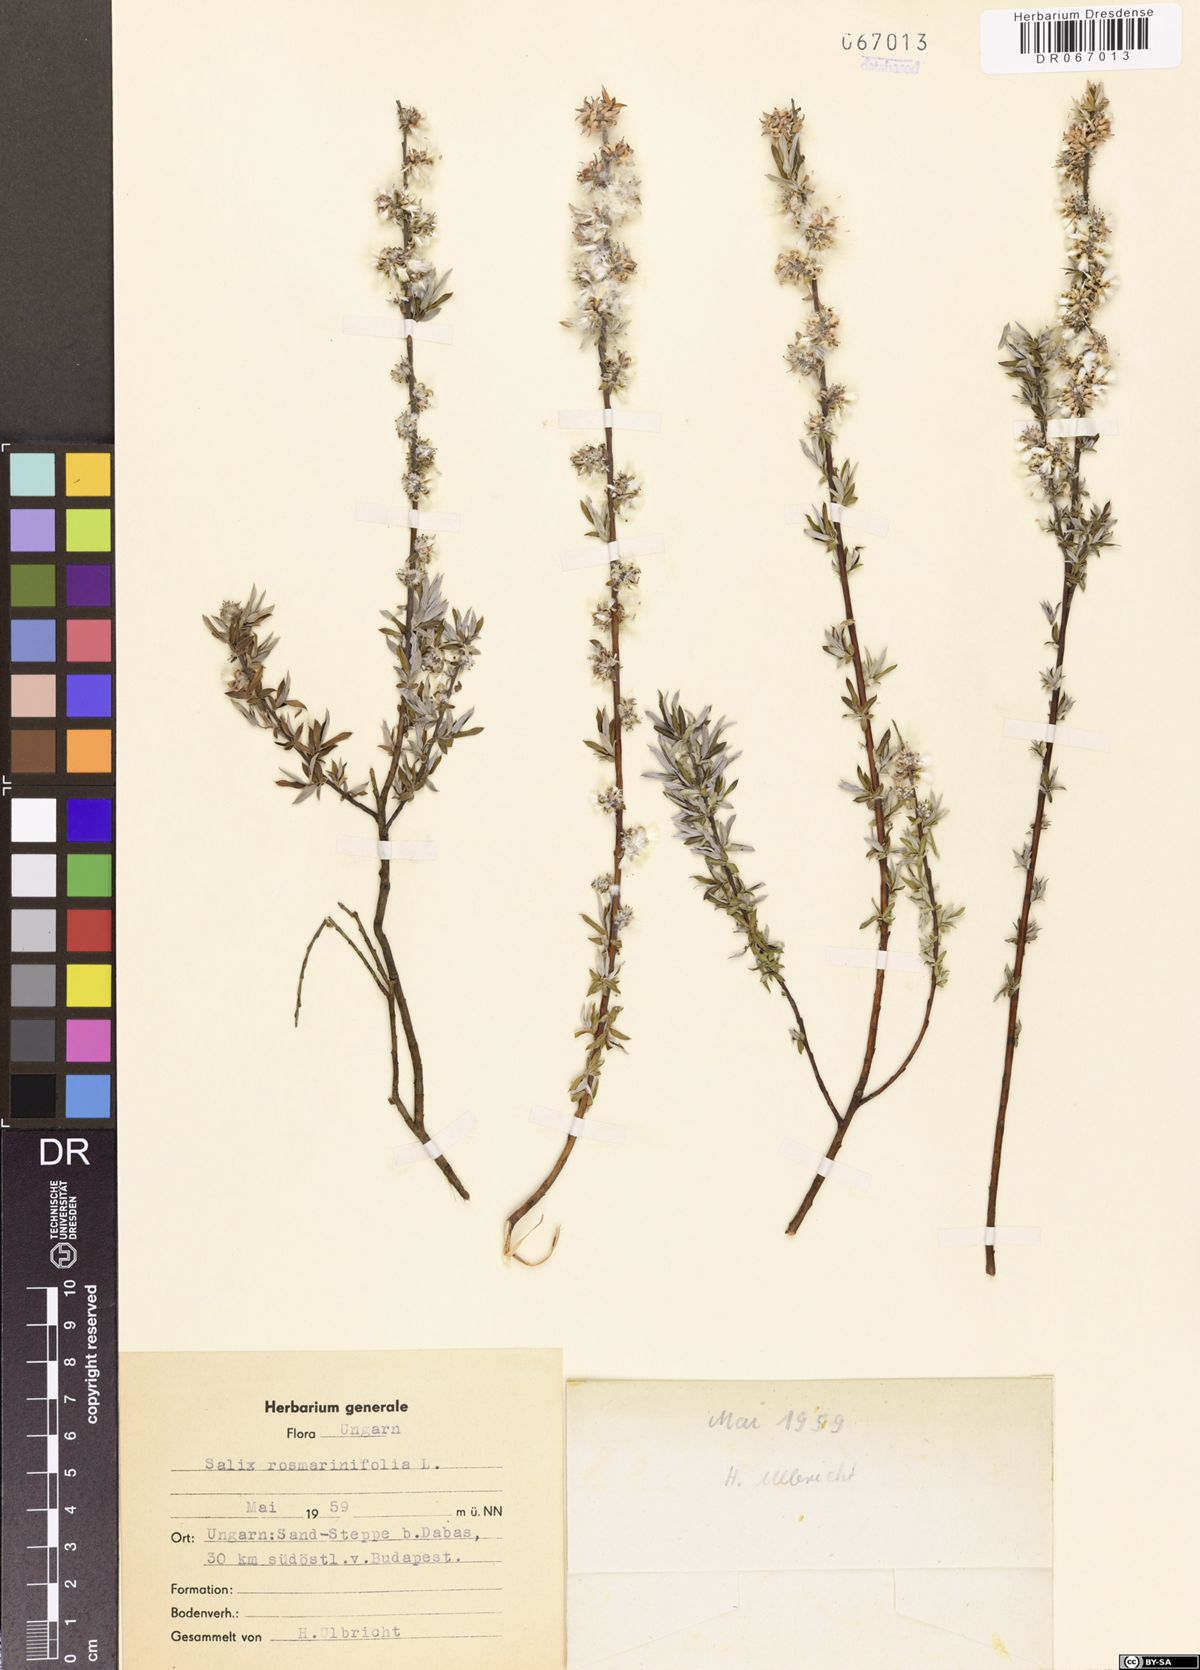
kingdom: Plantae
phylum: Tracheophyta
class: Magnoliopsida
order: Malpighiales
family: Salicaceae
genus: Salix
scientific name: Salix rosmarinifolia
